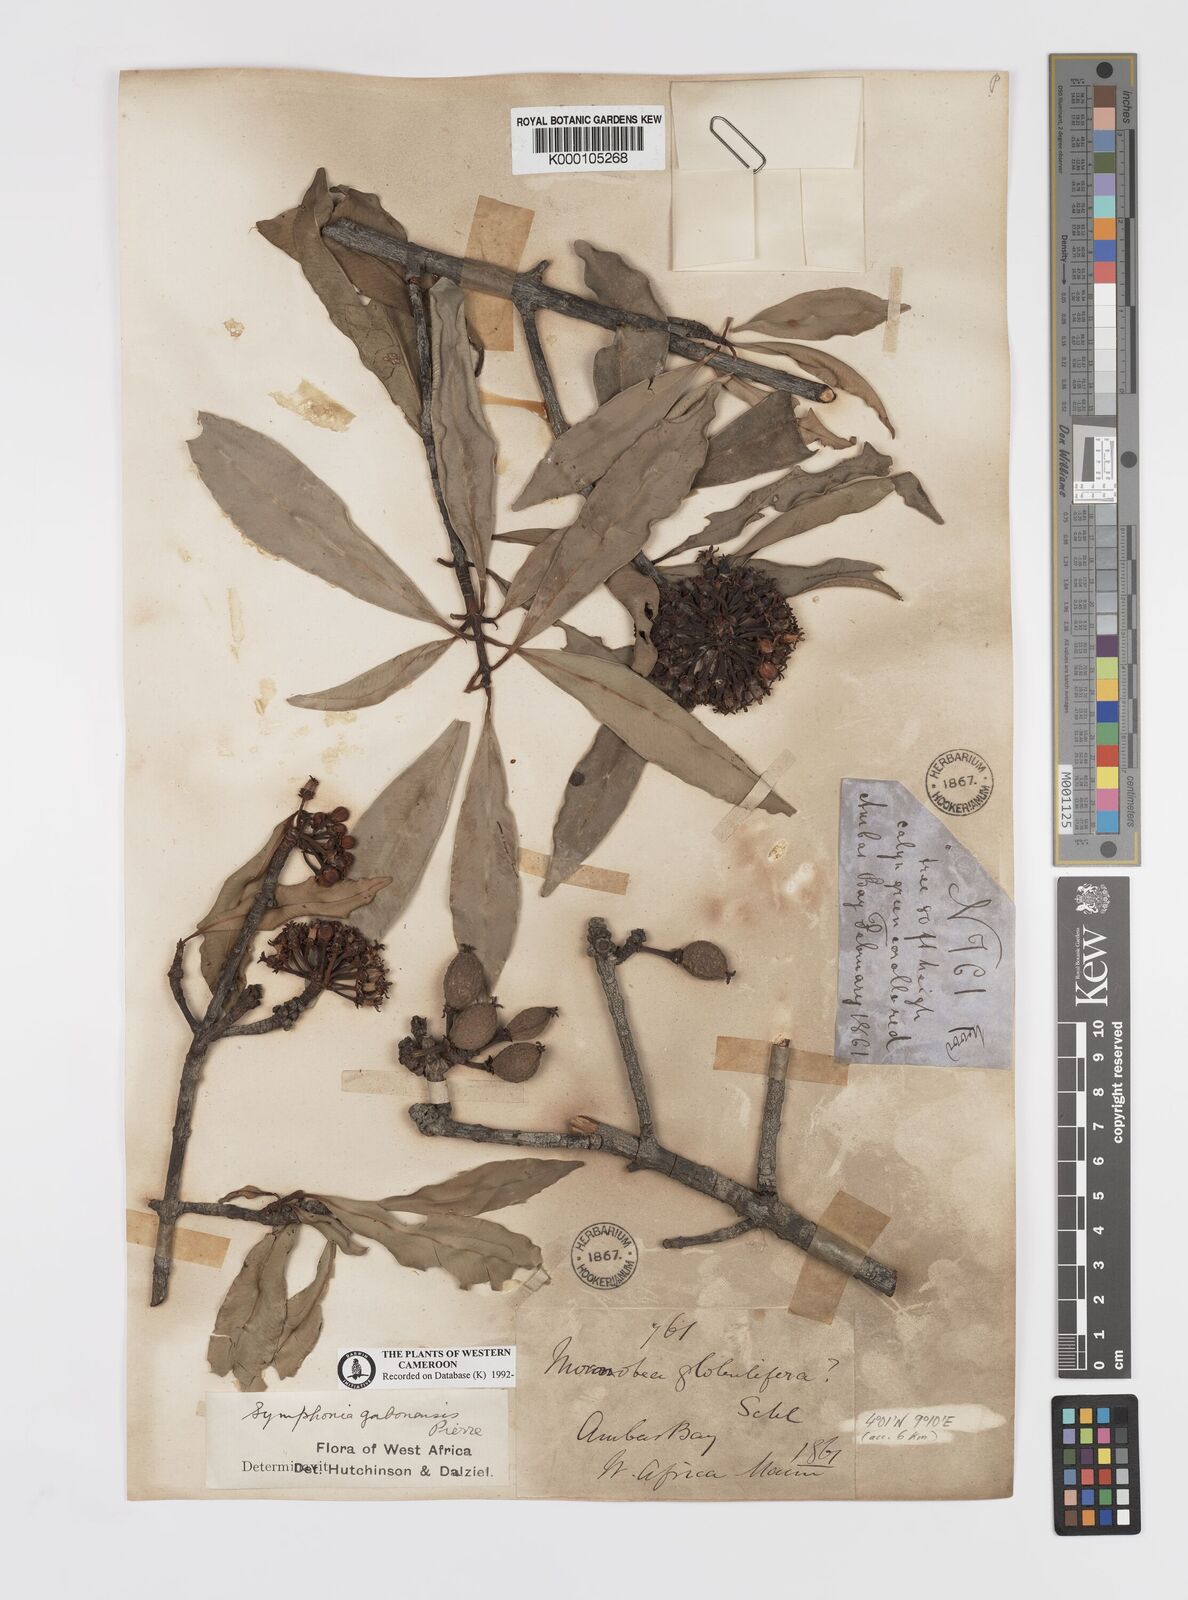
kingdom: Plantae
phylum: Tracheophyta
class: Magnoliopsida
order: Malpighiales
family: Clusiaceae
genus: Symphonia
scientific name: Symphonia globulifera
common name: Boarwood
